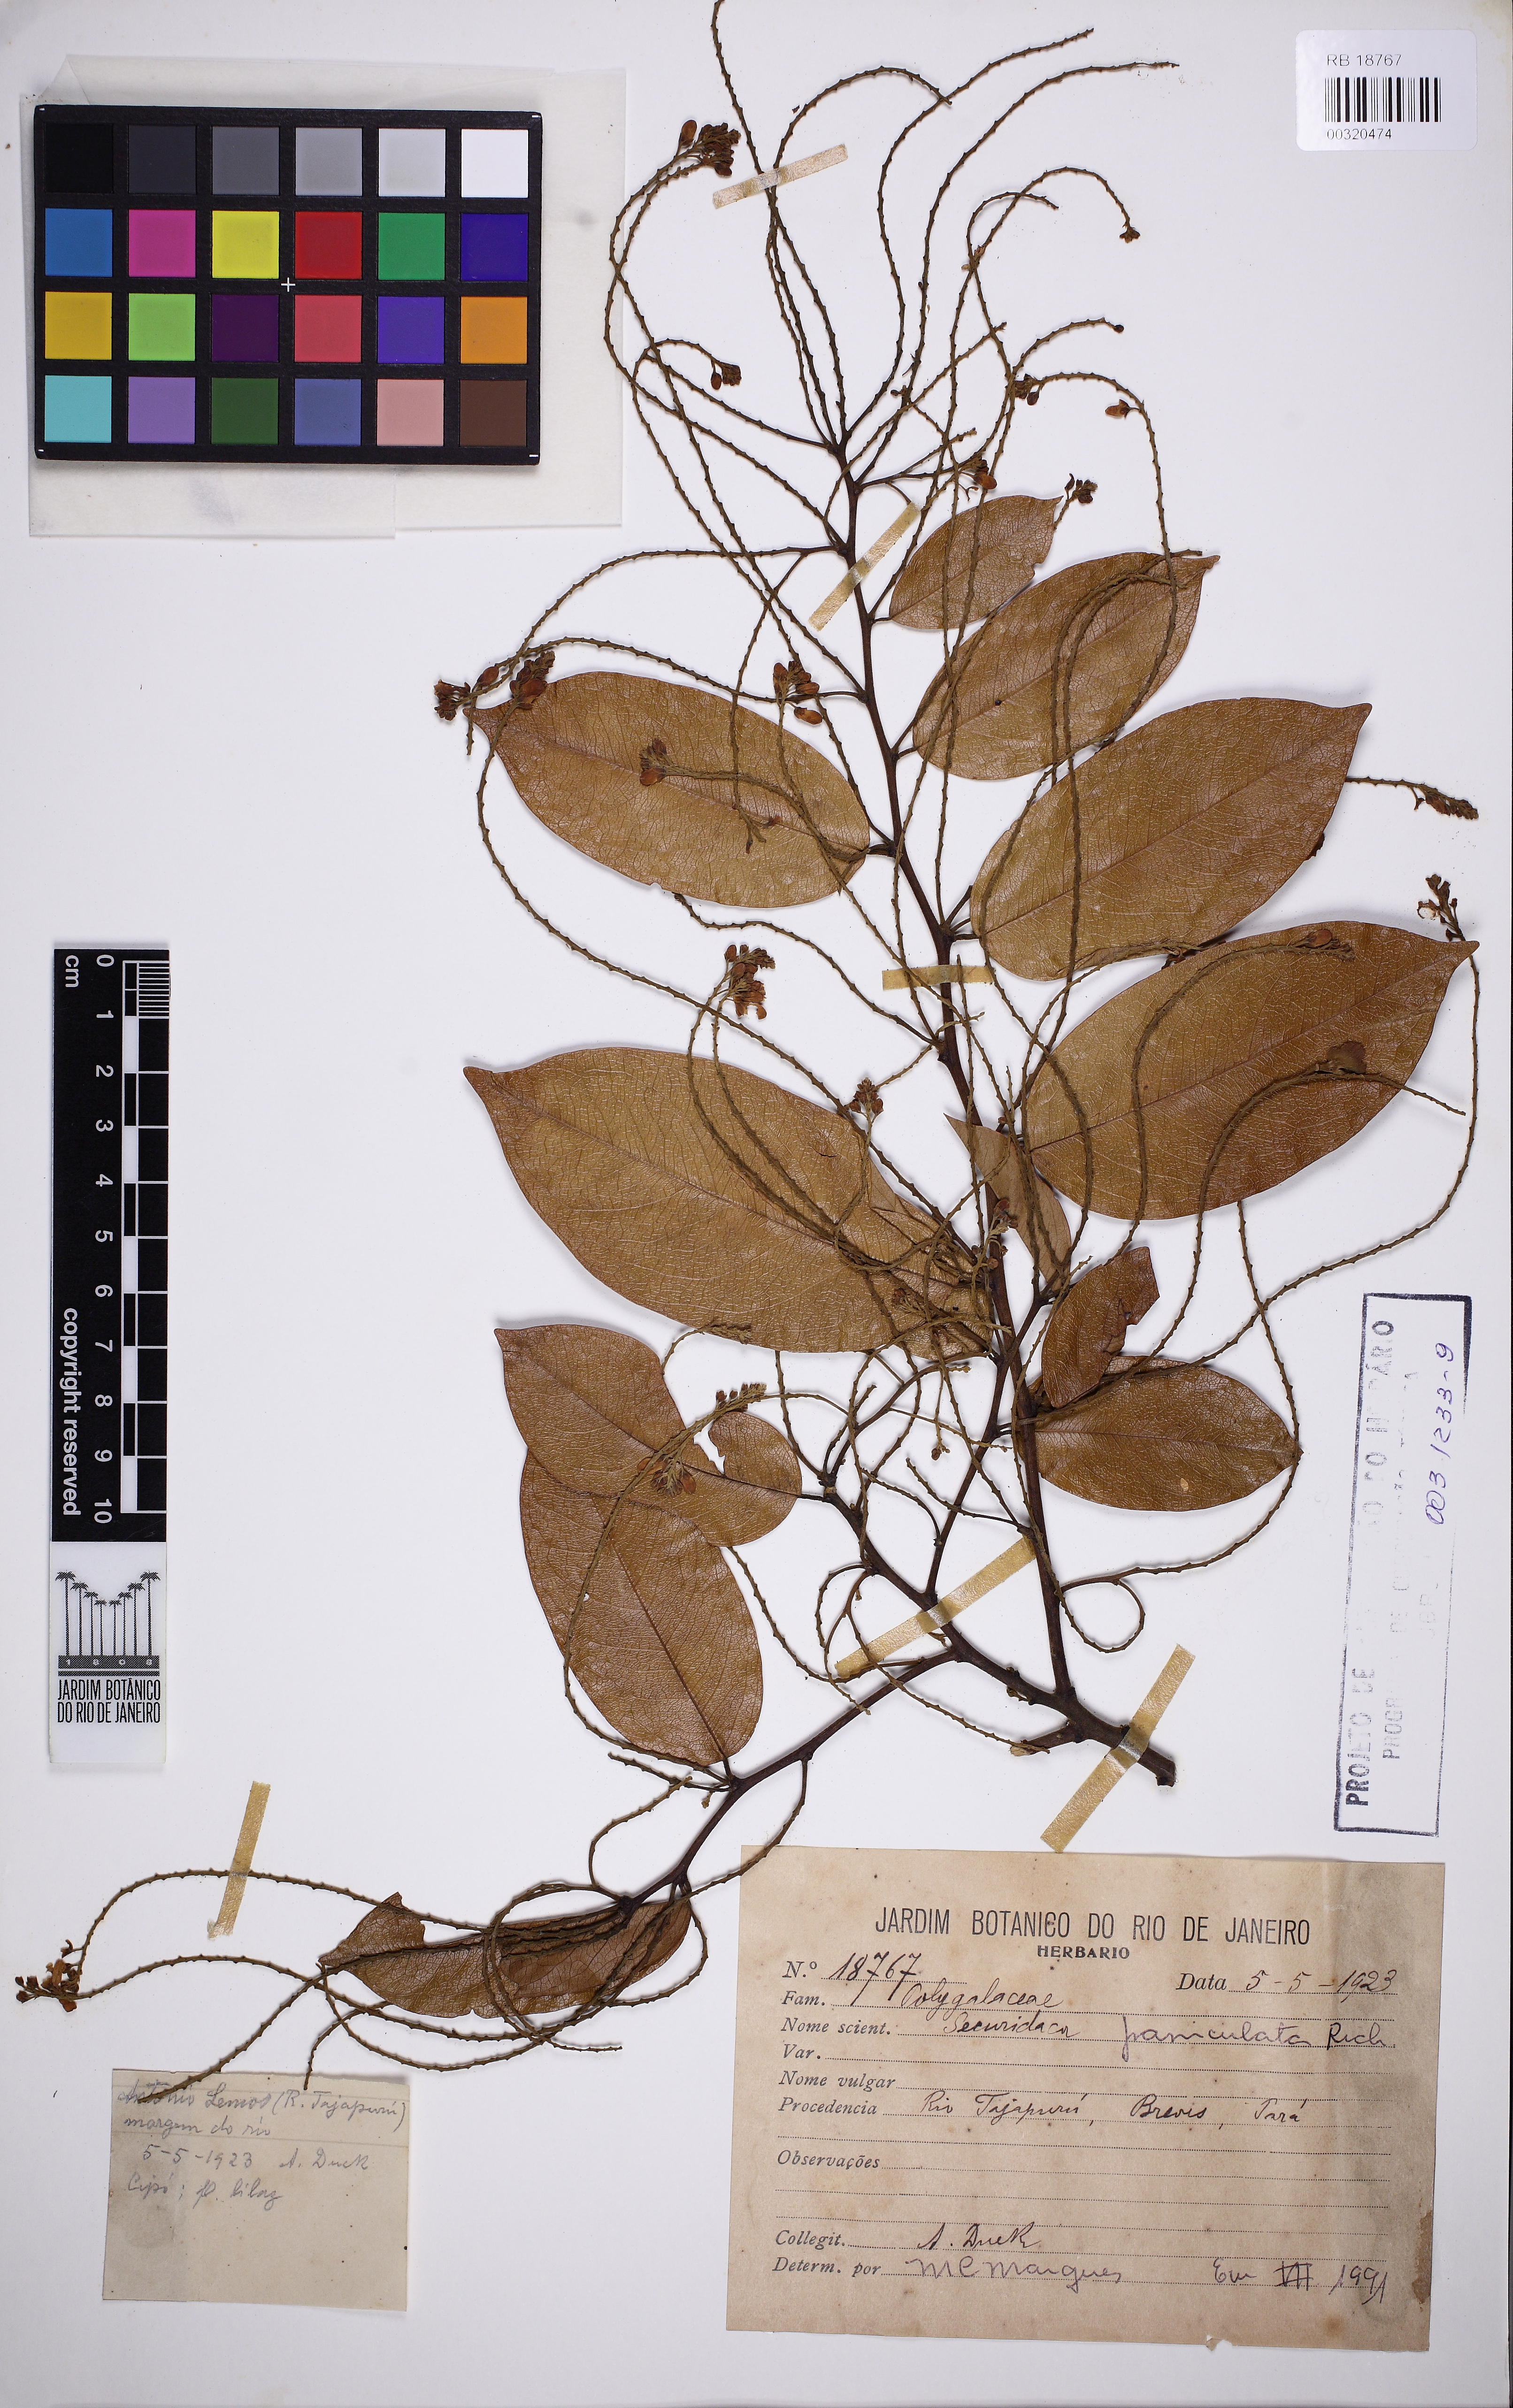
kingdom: Plantae
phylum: Tracheophyta
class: Magnoliopsida
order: Fabales
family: Polygalaceae
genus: Securidaca
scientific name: Securidaca paniculata
